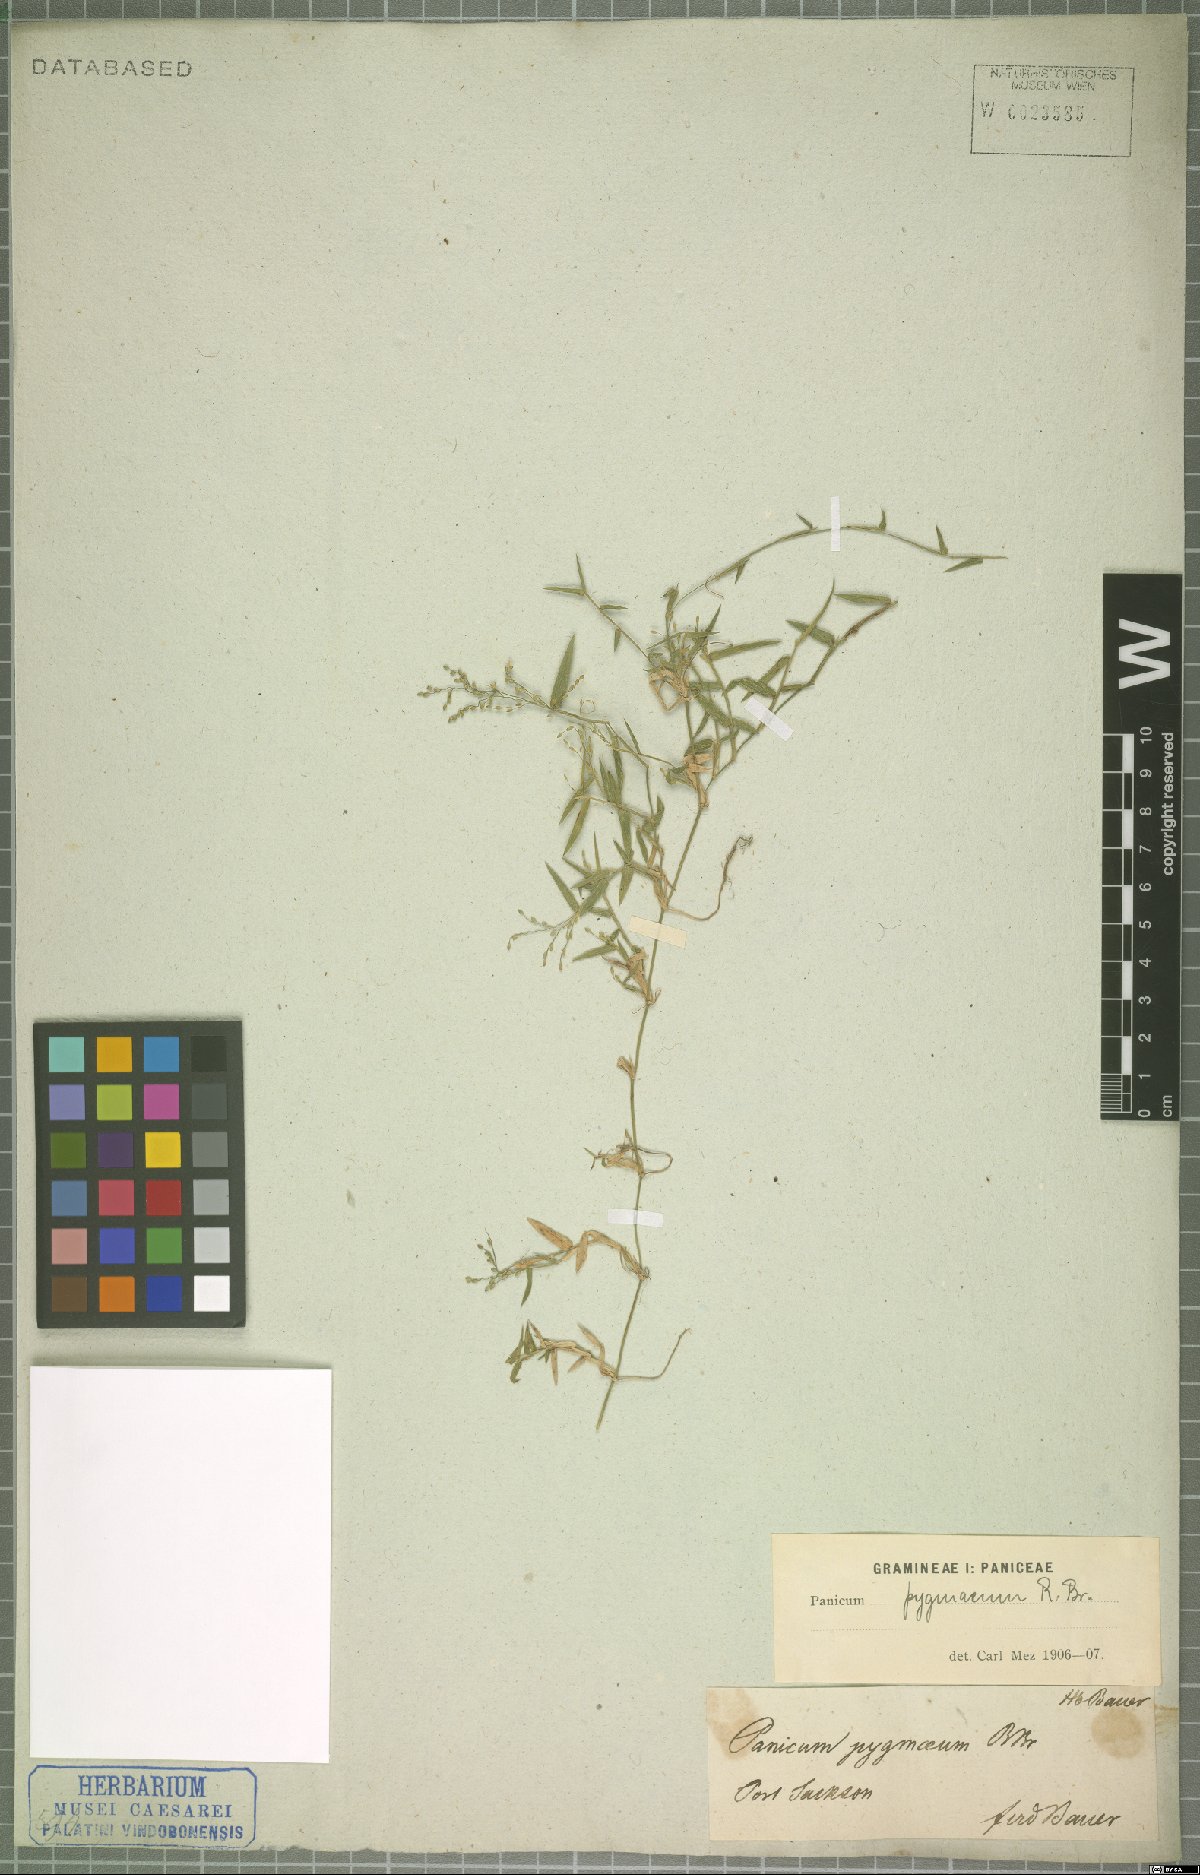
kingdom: Plantae
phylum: Tracheophyta
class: Liliopsida
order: Poales
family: Poaceae
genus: Panicum
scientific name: Panicum pygmaeum
